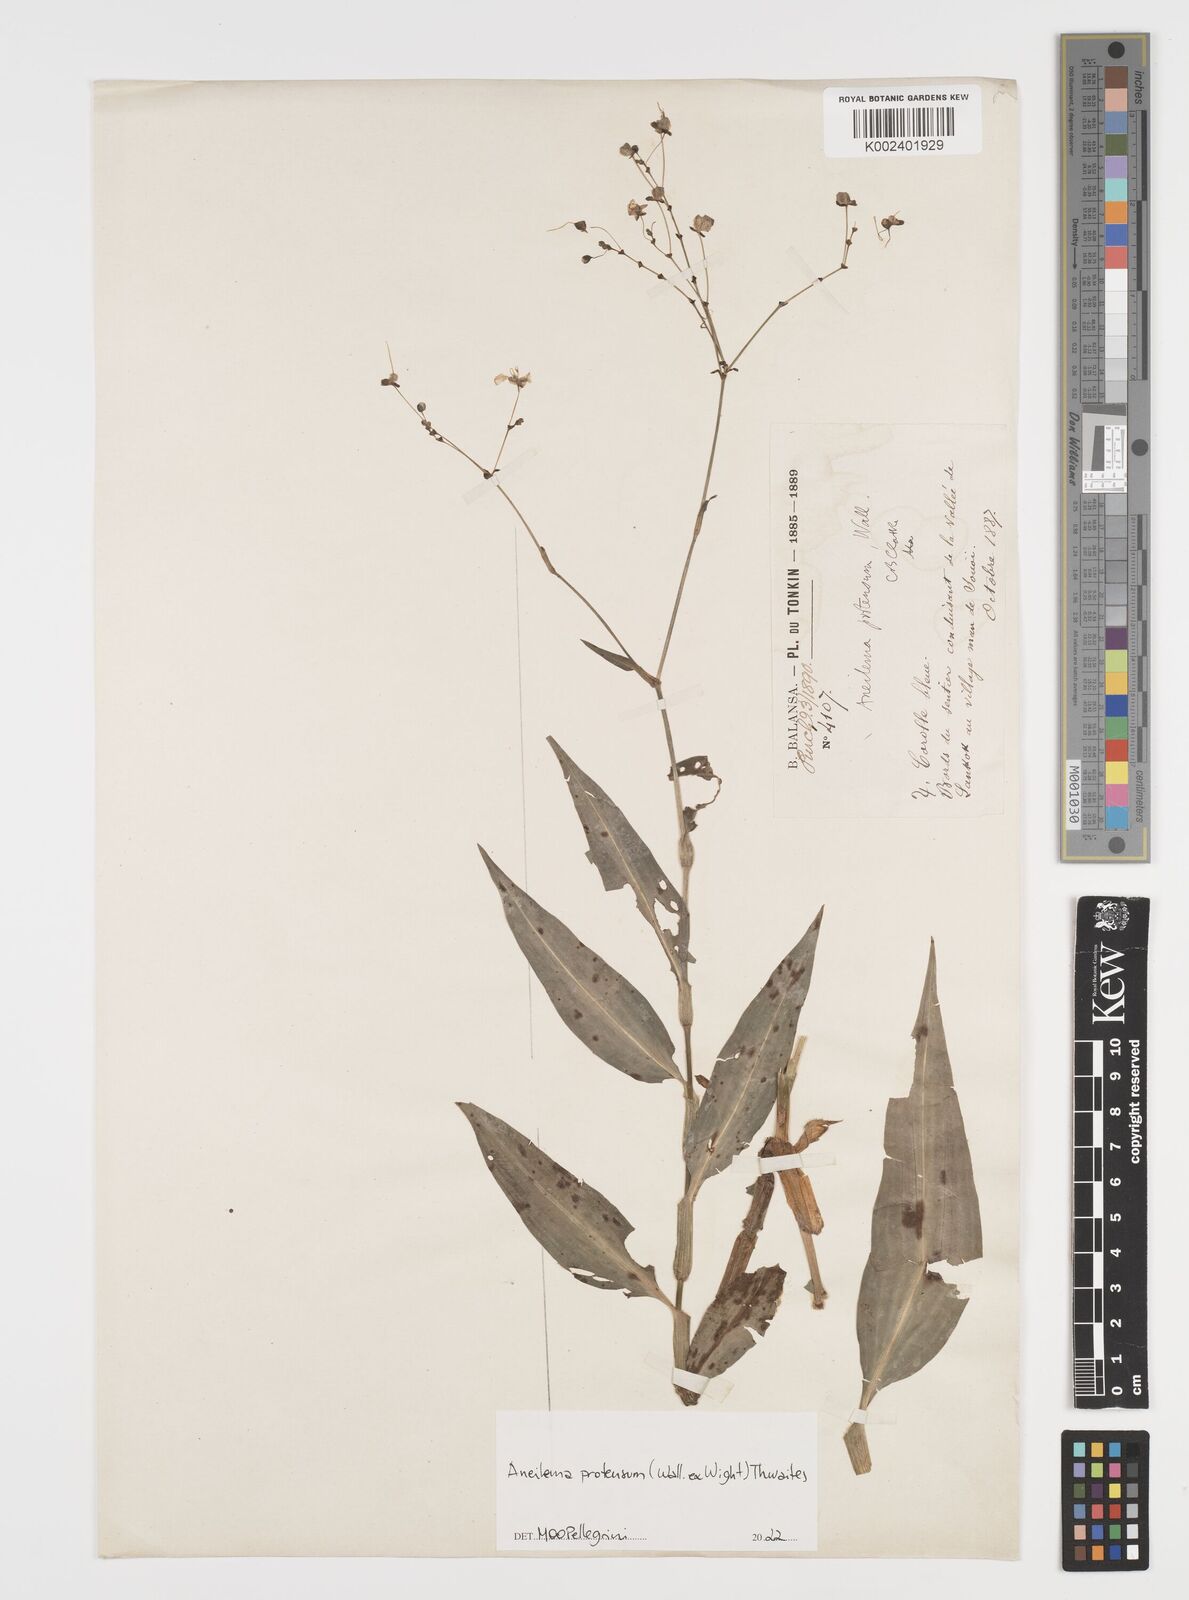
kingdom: Plantae
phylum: Tracheophyta
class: Liliopsida
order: Commelinales
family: Commelinaceae
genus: Rhopalephora
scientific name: Rhopalephora
